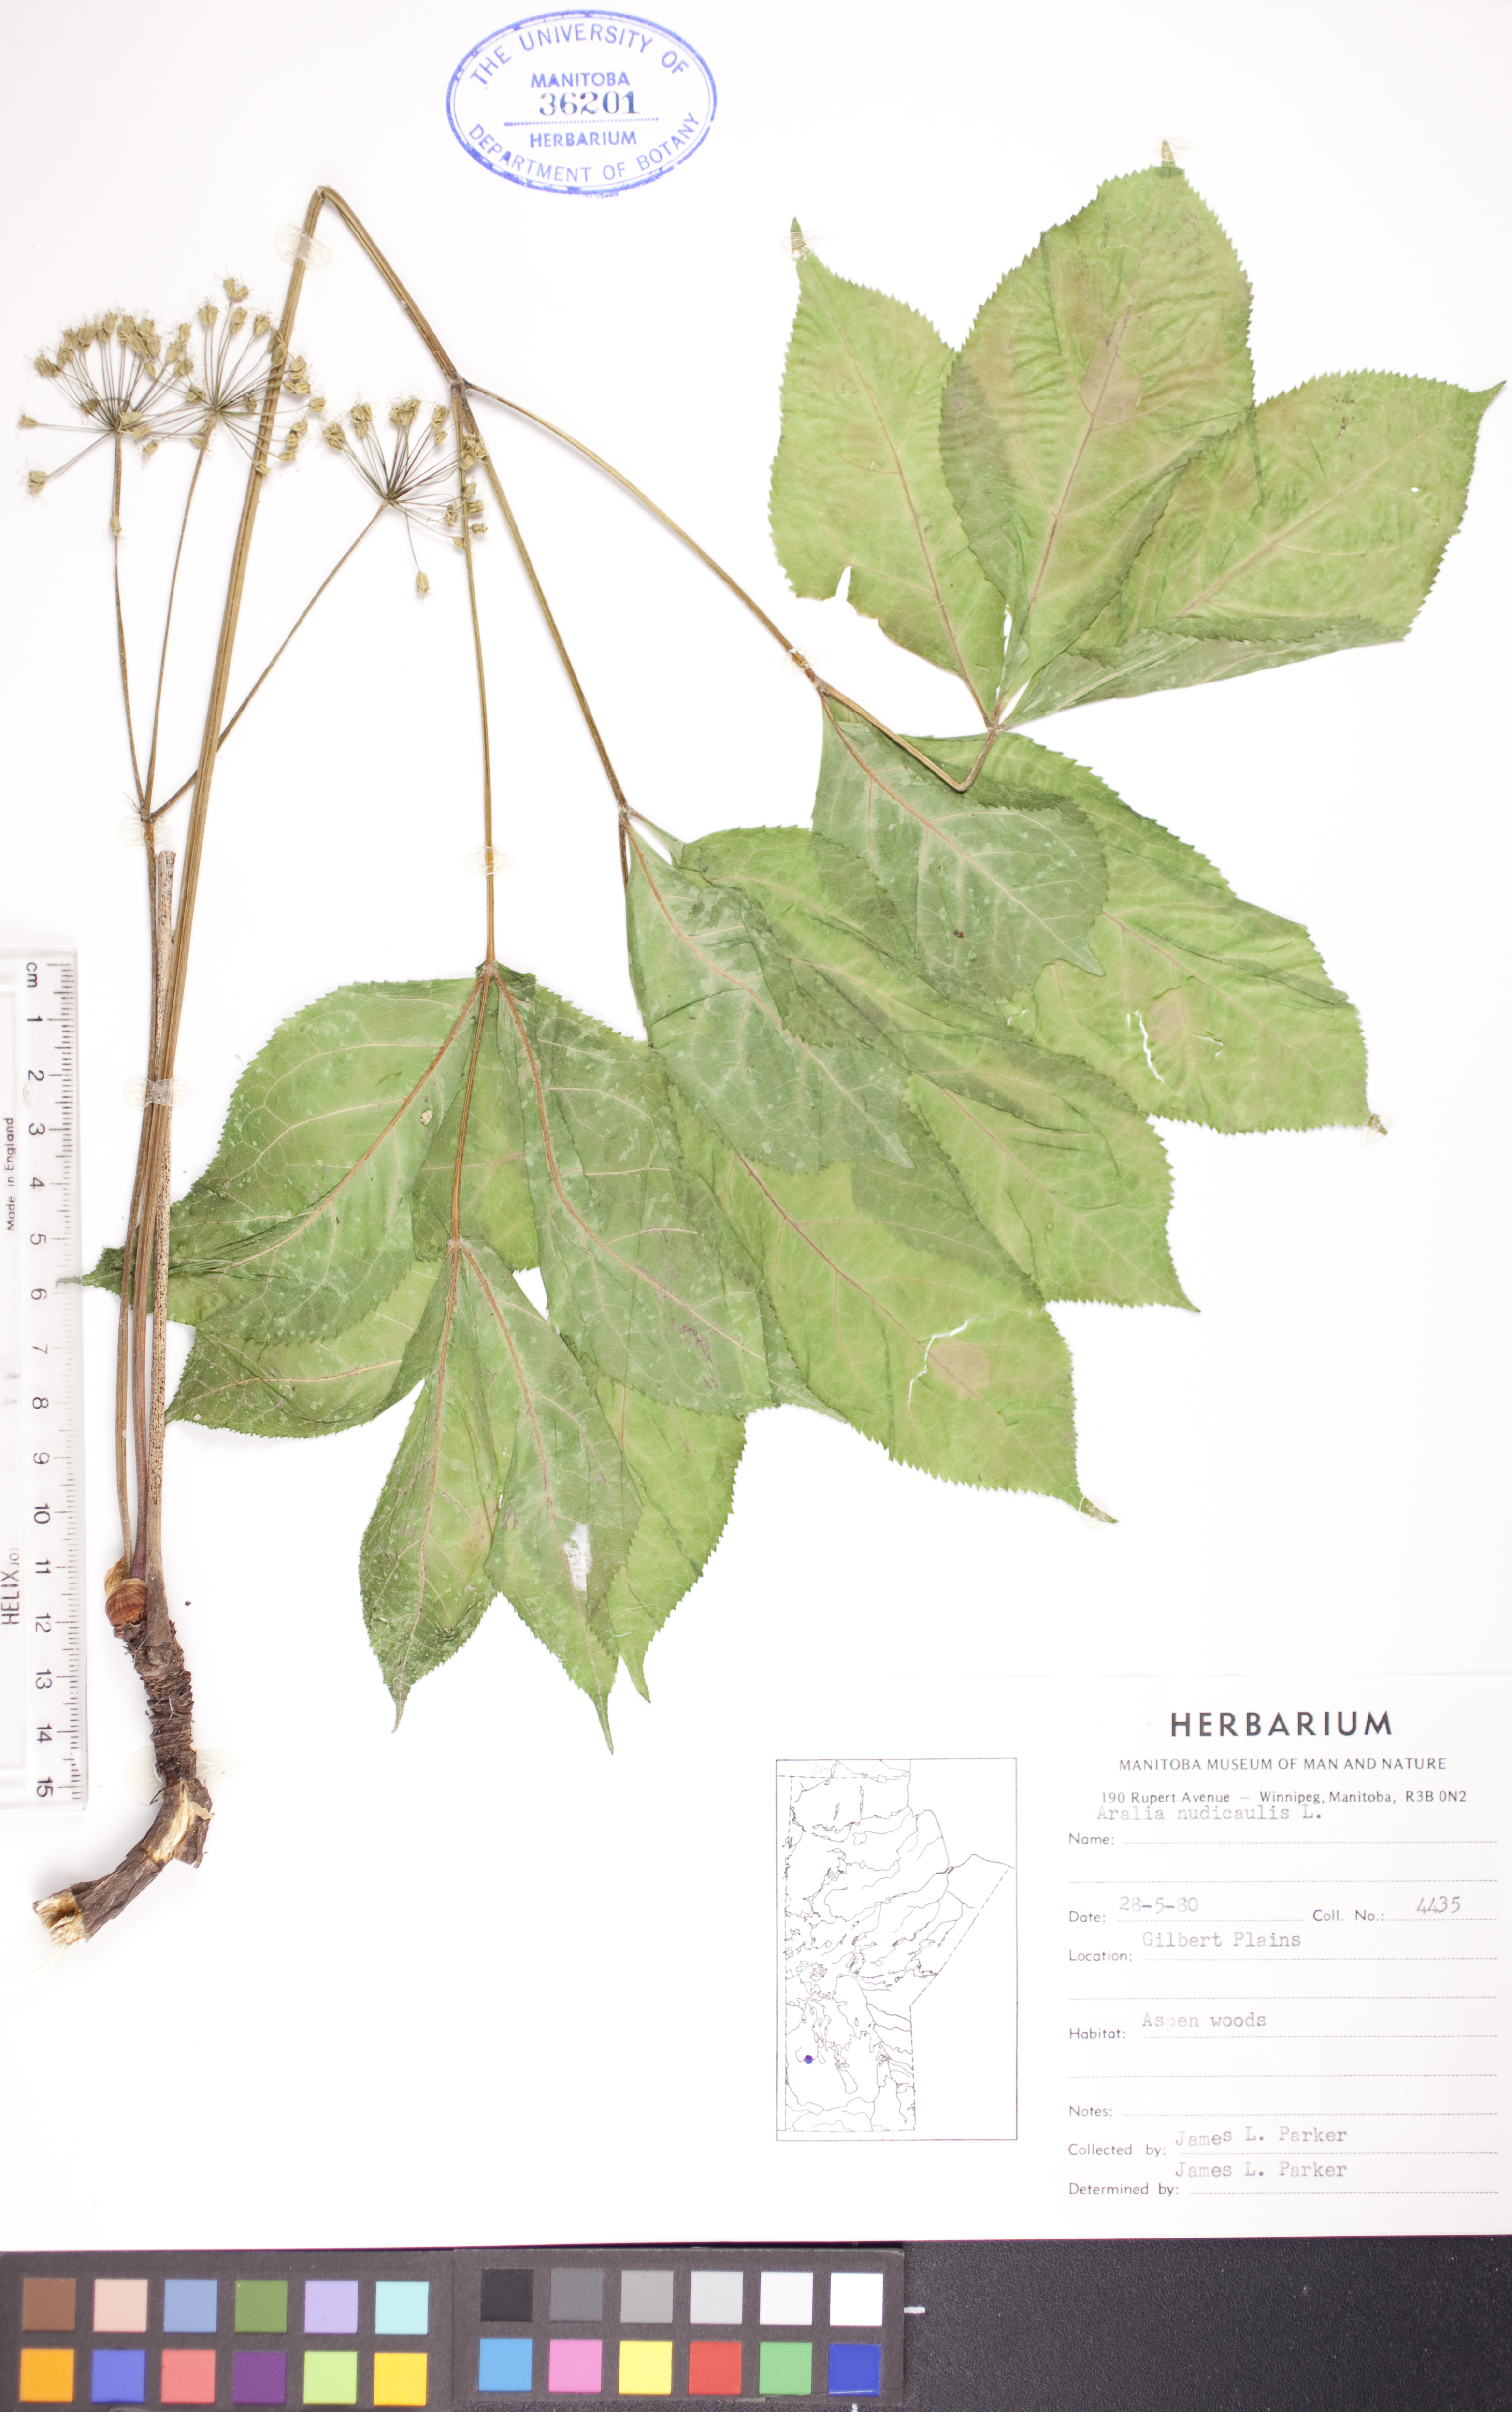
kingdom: Plantae
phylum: Tracheophyta
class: Magnoliopsida
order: Apiales
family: Araliaceae
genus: Aralia
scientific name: Aralia nudicaulis
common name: Wild sarsaparilla
